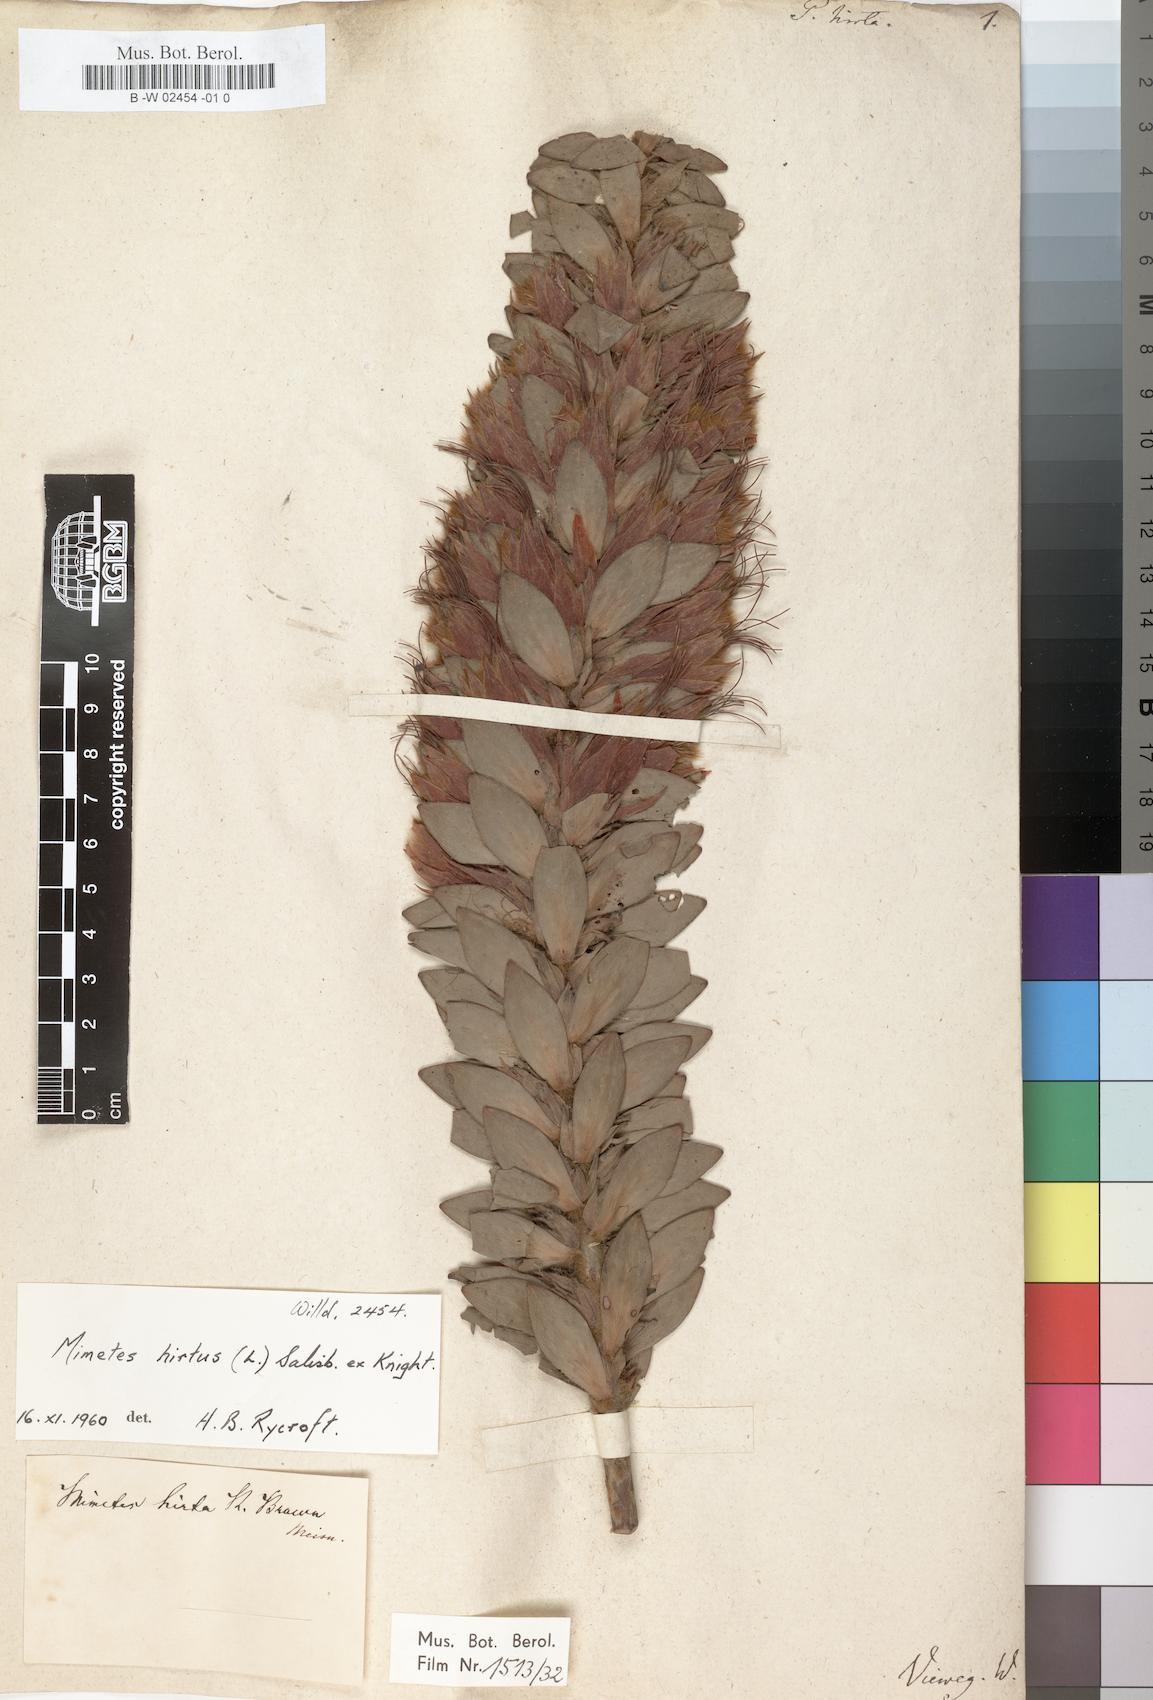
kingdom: Plantae
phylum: Tracheophyta
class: Magnoliopsida
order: Proteales
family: Proteaceae
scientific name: Proteaceae
